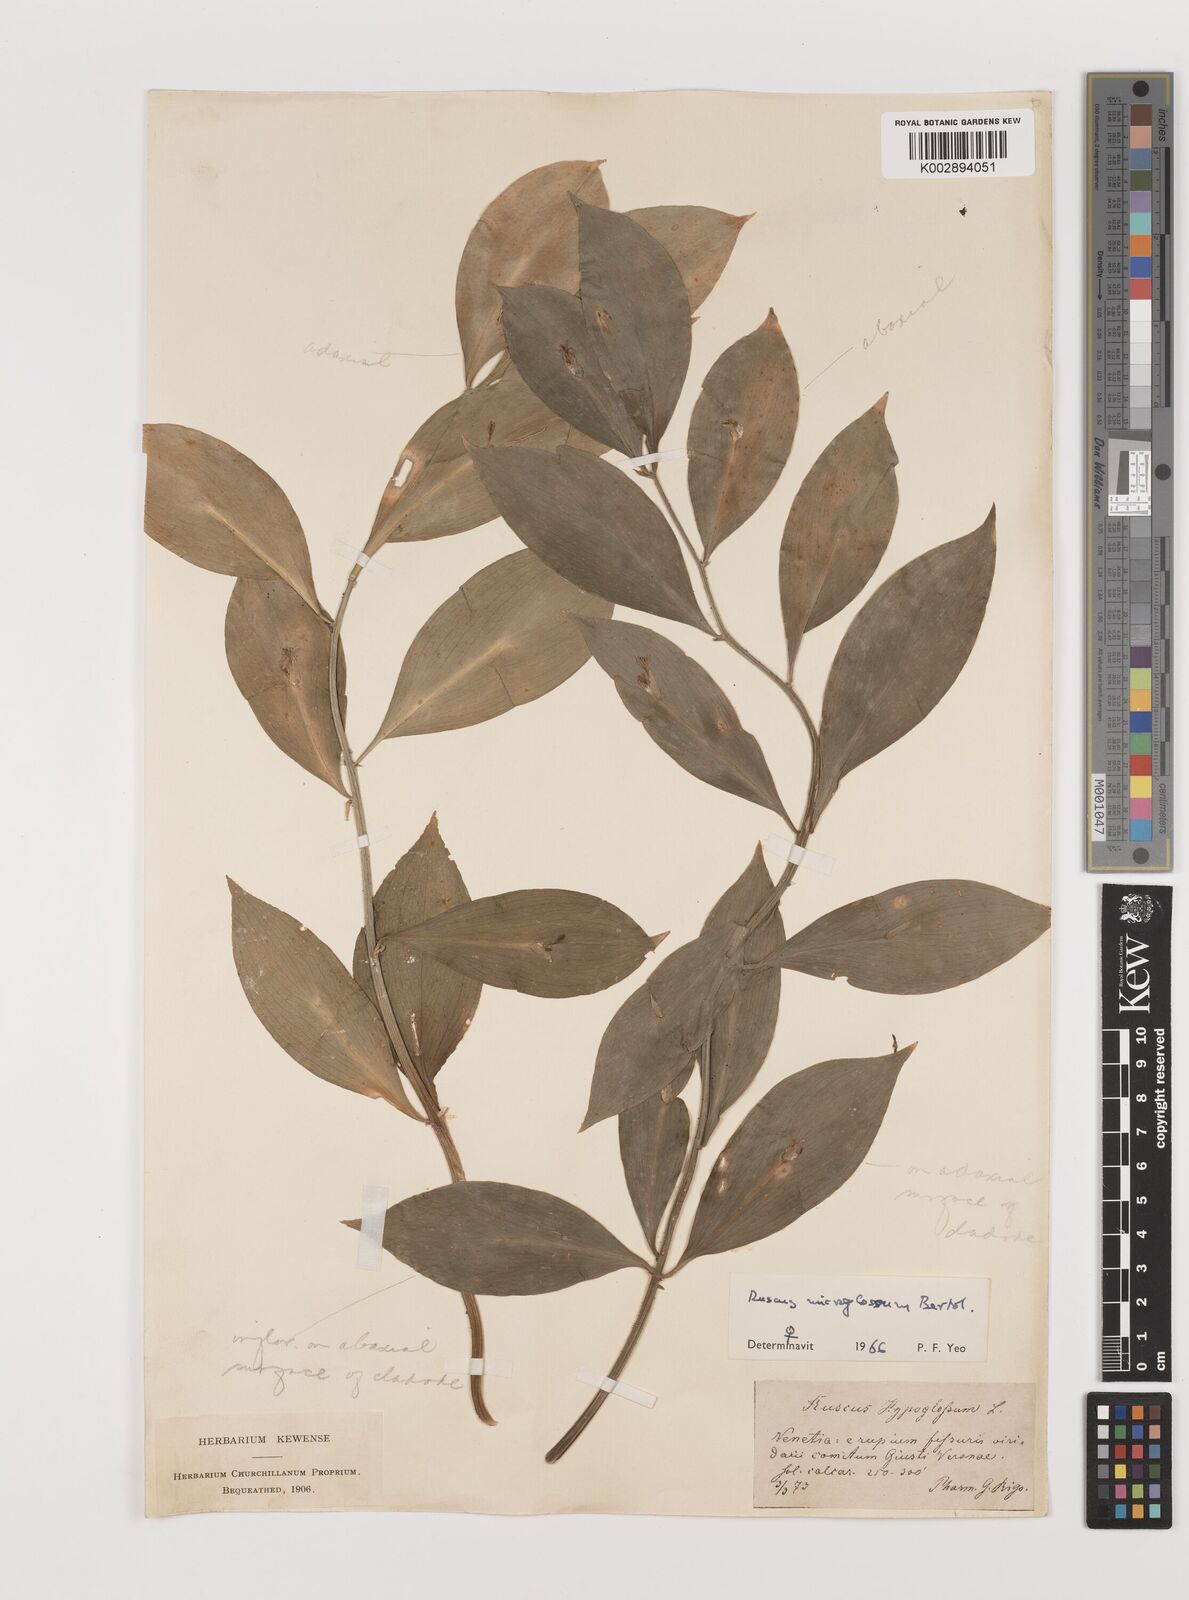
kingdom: Plantae
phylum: Tracheophyta
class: Liliopsida
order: Asparagales
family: Asparagaceae
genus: Ruscus
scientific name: Ruscus microglossus
